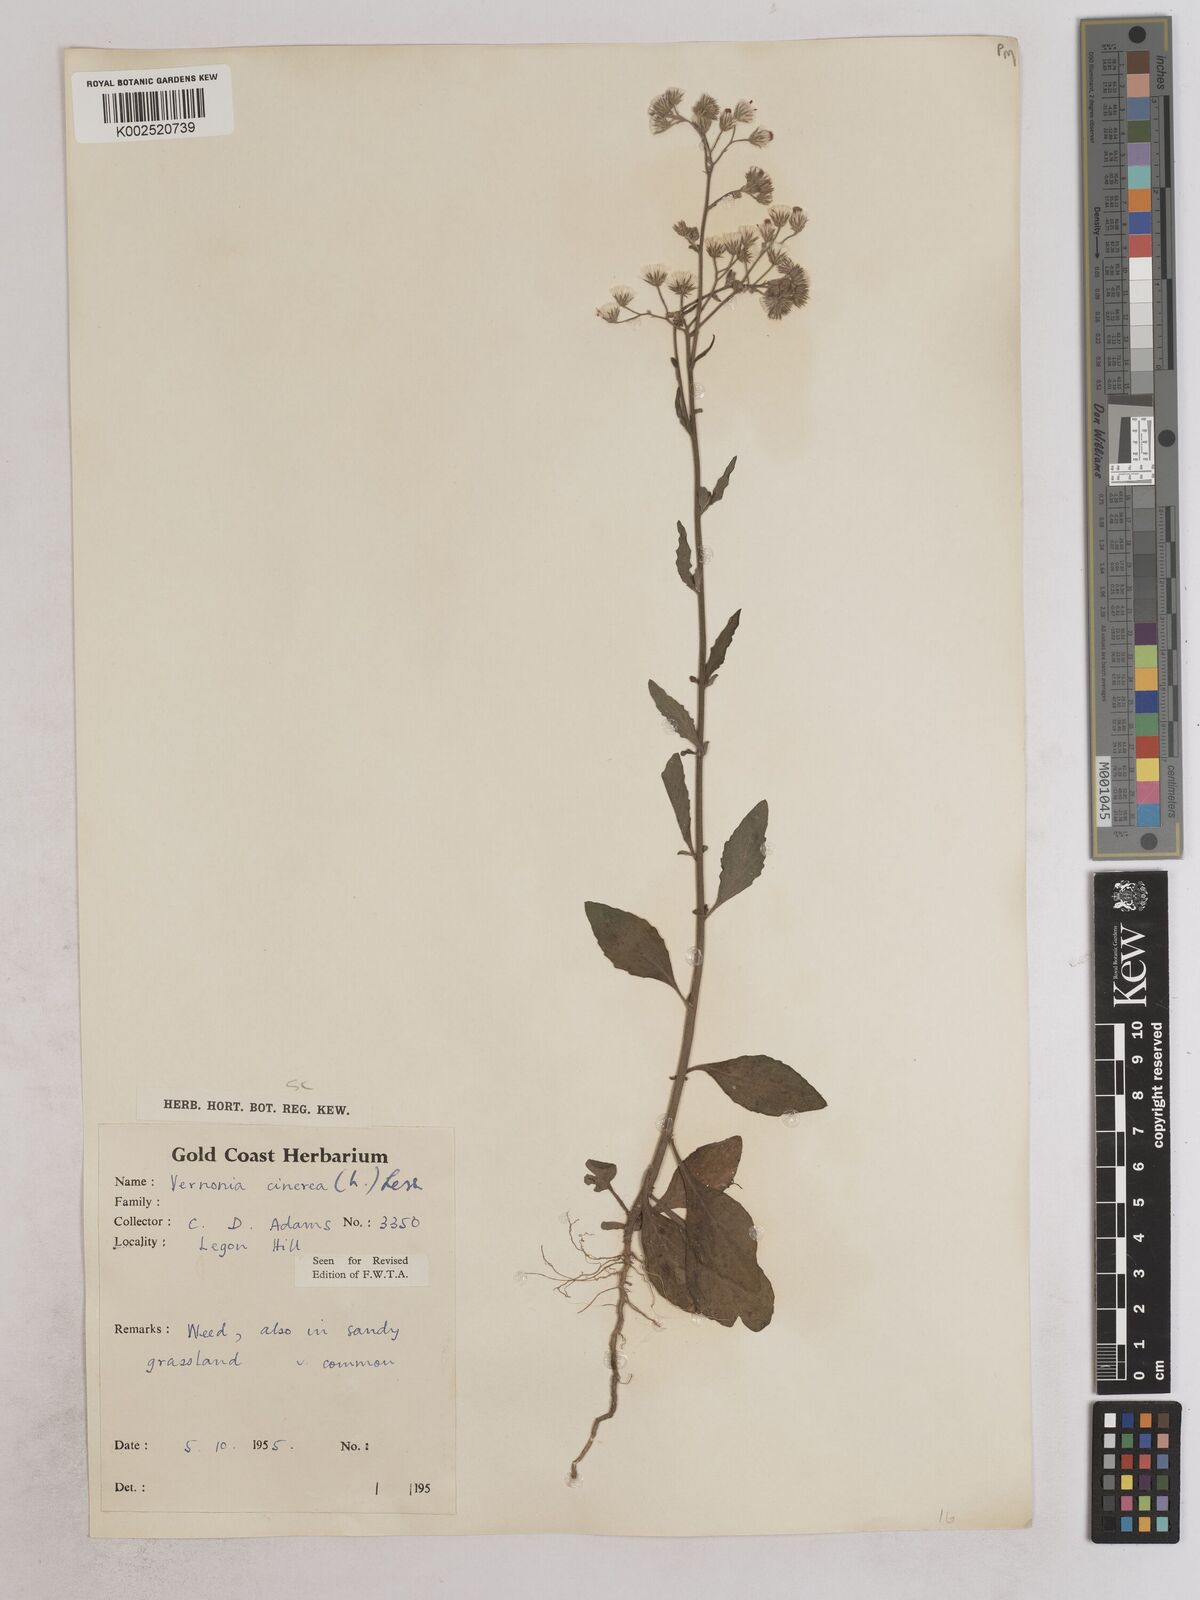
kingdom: Plantae
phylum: Tracheophyta
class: Magnoliopsida
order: Asterales
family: Asteraceae
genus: Cyanthillium
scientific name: Cyanthillium cinereum
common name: Little ironweed
